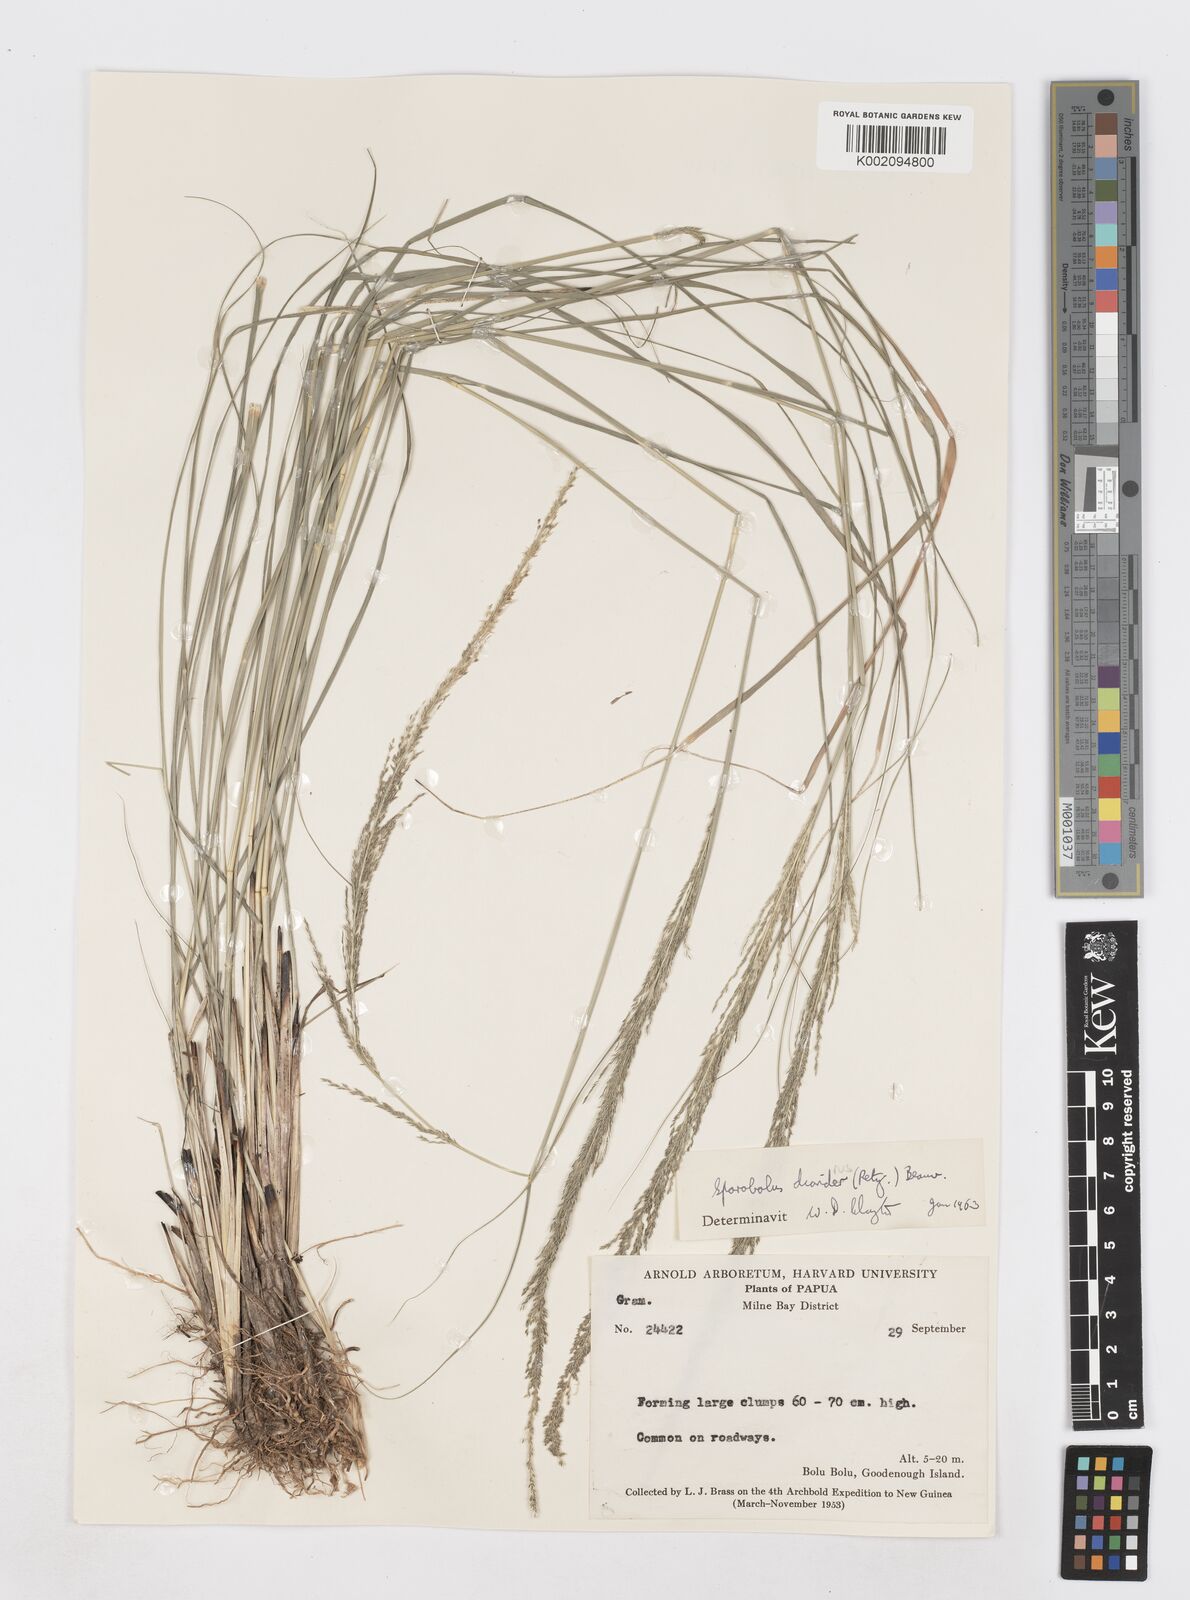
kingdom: Plantae
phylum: Tracheophyta
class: Liliopsida
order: Poales
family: Poaceae
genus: Sporobolus
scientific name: Sporobolus diandrus
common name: Tussock dropseed
